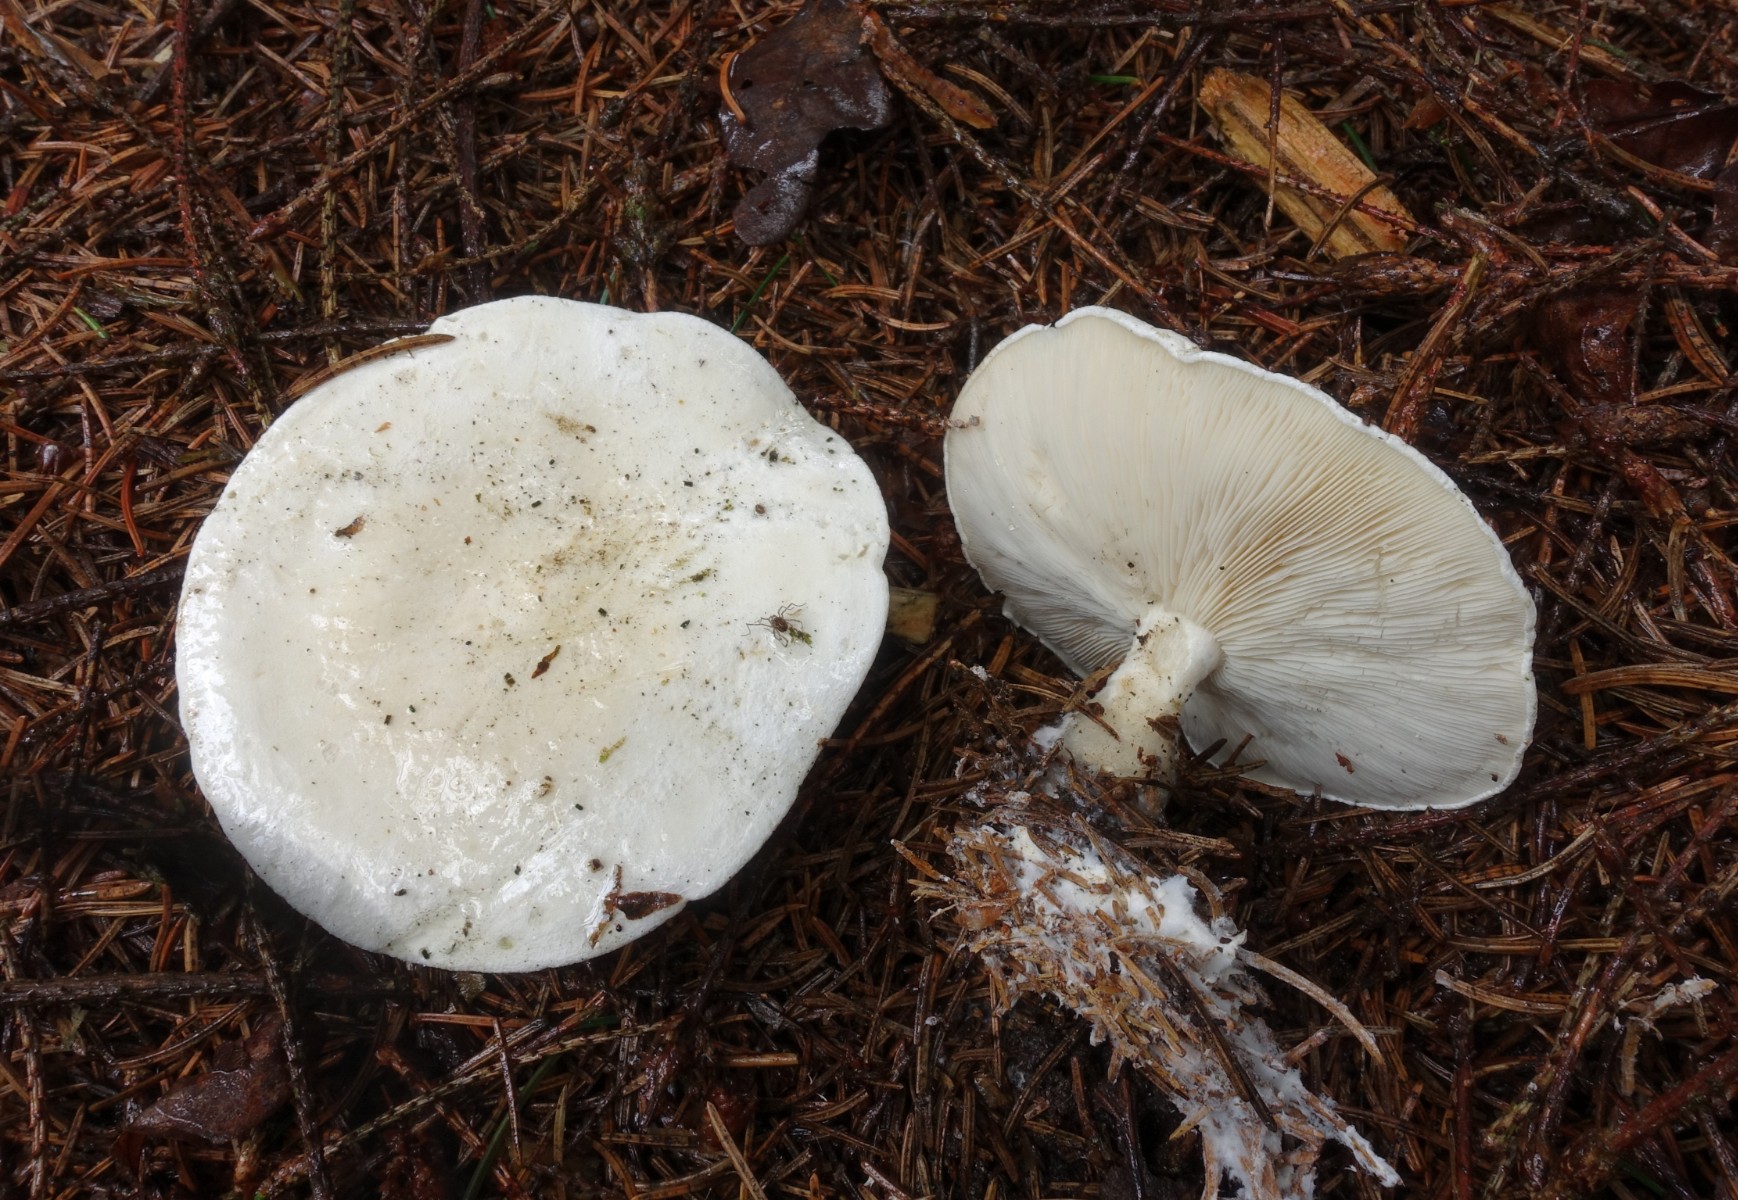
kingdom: Fungi
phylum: Basidiomycota
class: Agaricomycetes
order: Agaricales
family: Tricholomataceae
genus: Clitocybe
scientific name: Clitocybe phyllophila
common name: løv-tragthat
